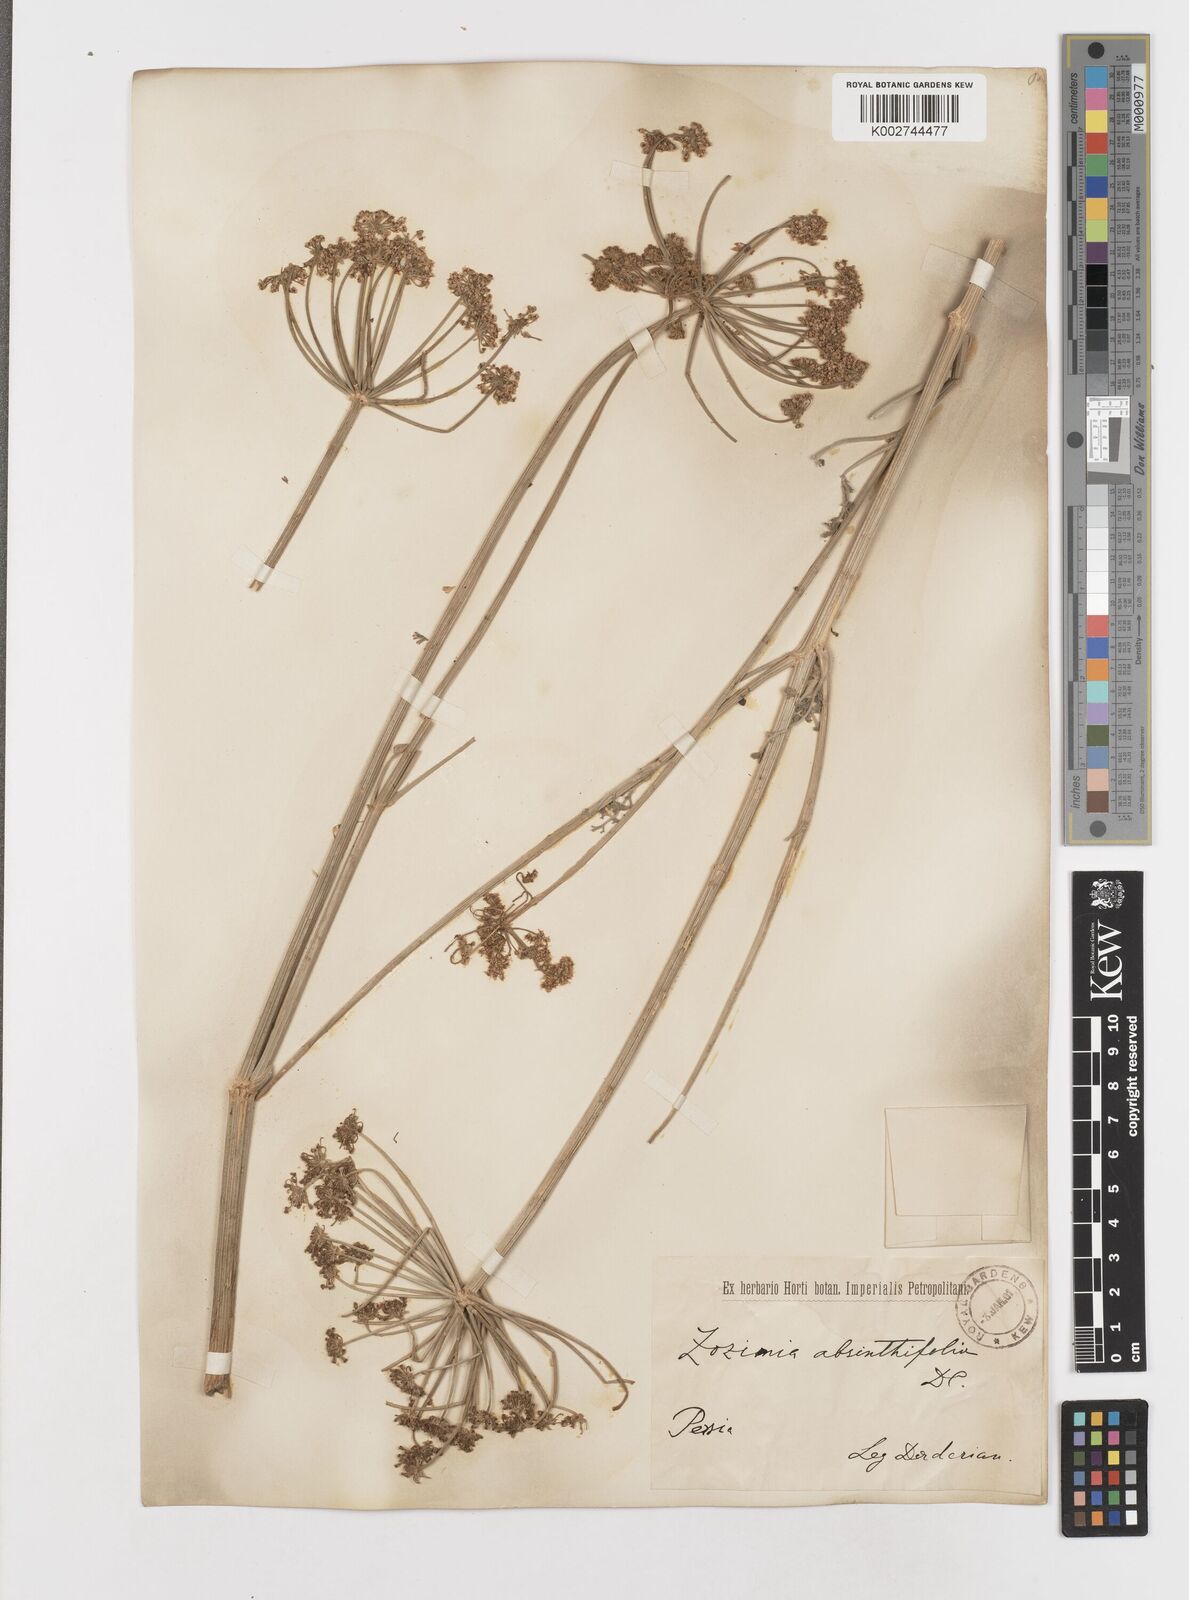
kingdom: Plantae
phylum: Tracheophyta
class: Magnoliopsida
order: Apiales
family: Apiaceae
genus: Zosima
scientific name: Zosima absinthiifolia
